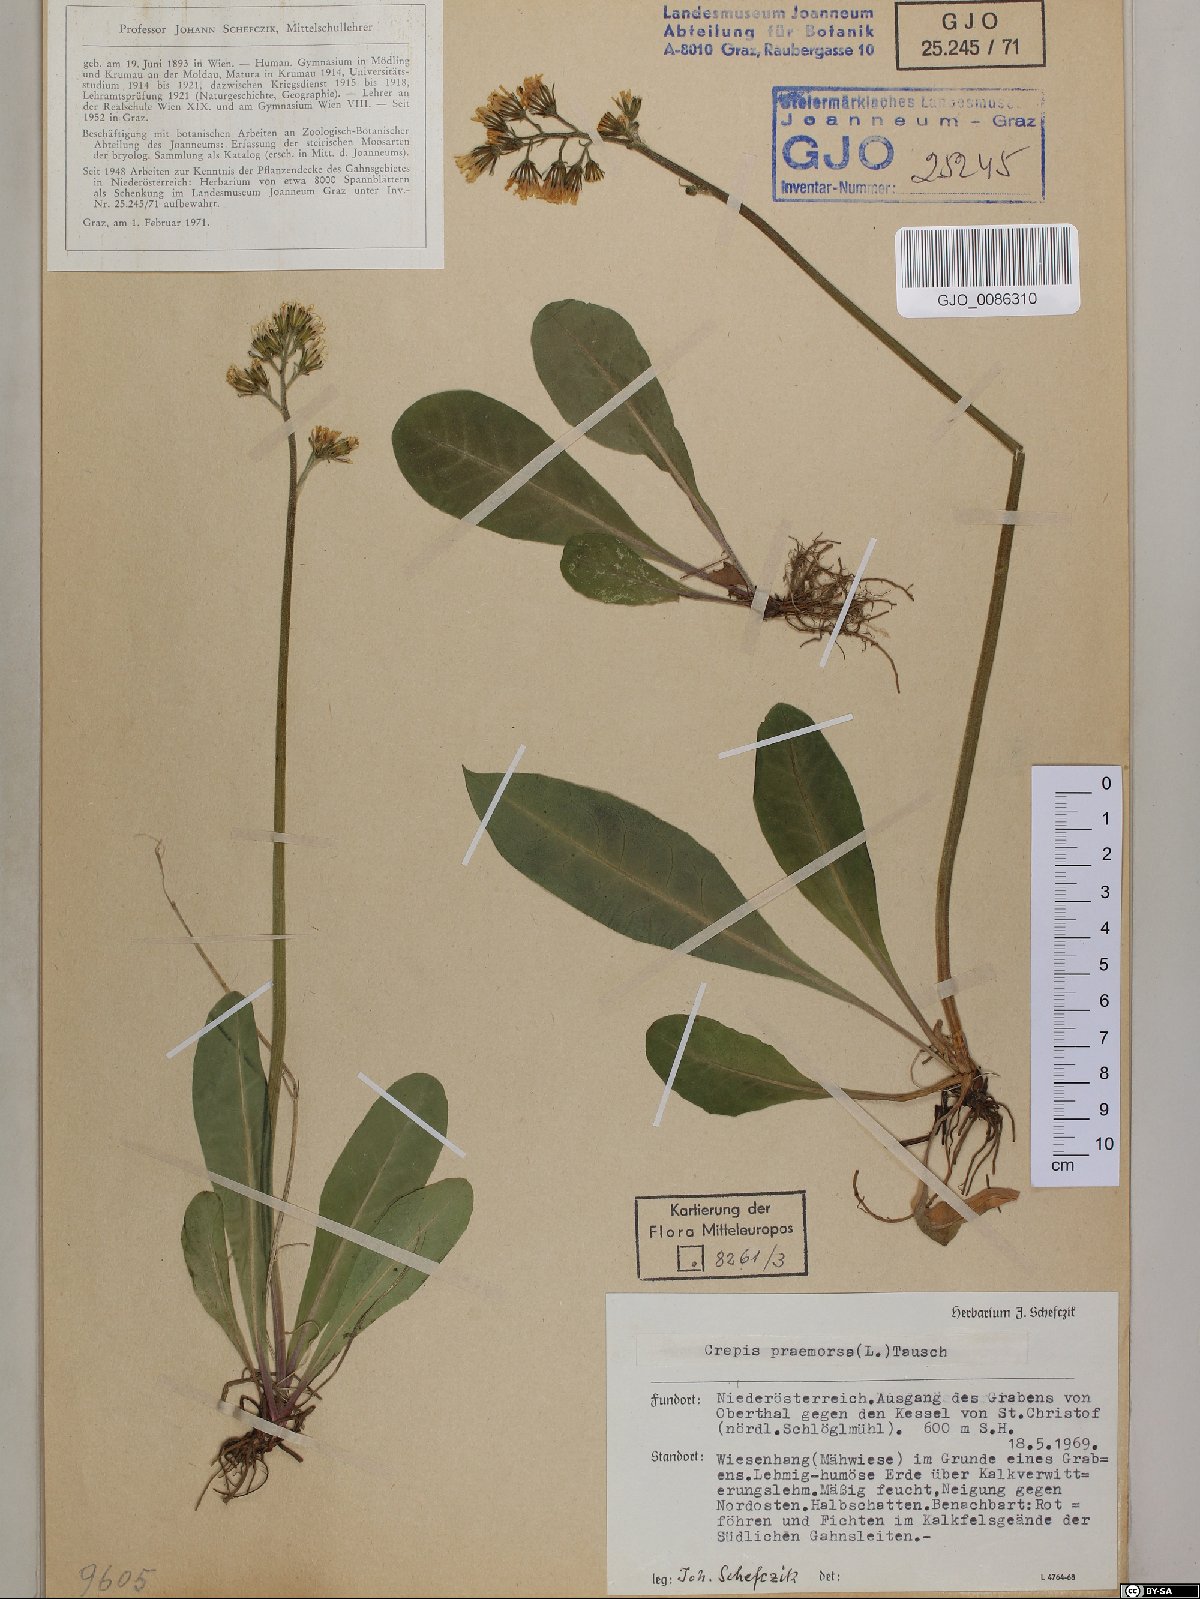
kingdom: Plantae
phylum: Tracheophyta
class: Magnoliopsida
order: Asterales
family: Asteraceae
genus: Crepis
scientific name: Crepis praemorsa
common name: Leafless hawk's-beard
